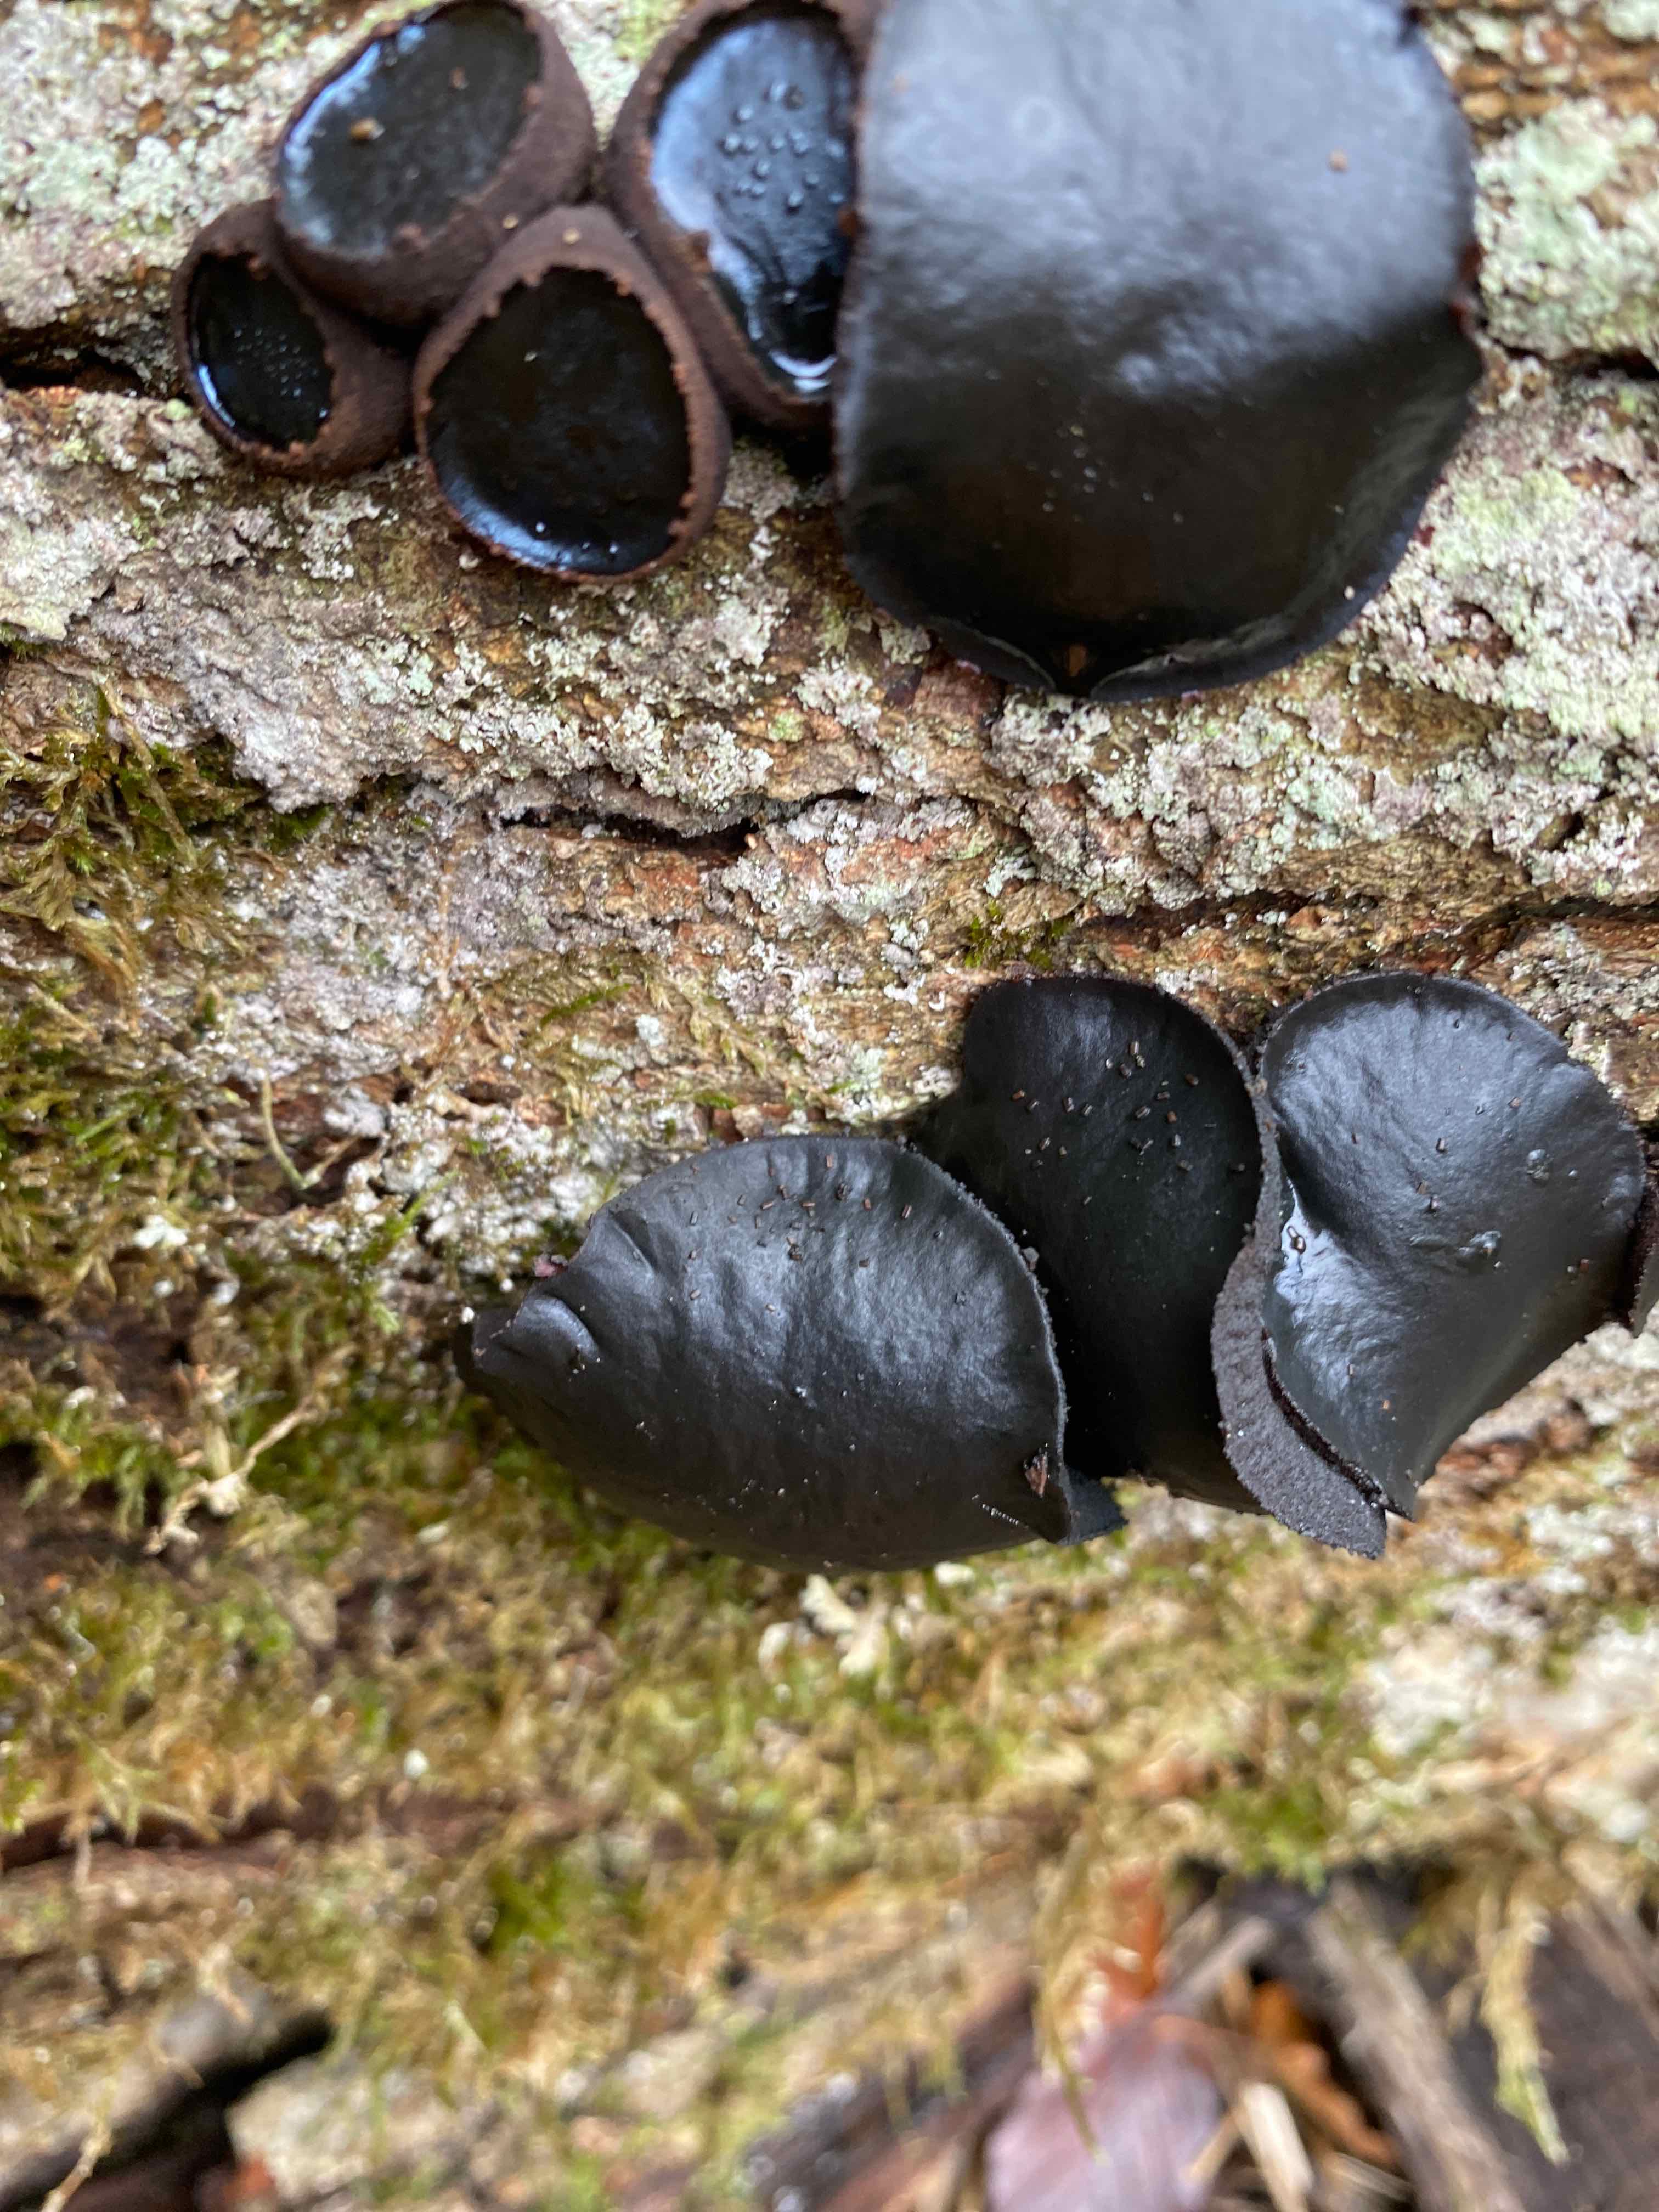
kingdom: Fungi
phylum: Ascomycota
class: Leotiomycetes
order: Phacidiales
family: Phacidiaceae
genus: Bulgaria
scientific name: Bulgaria inquinans
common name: afsmittende topsvamp
